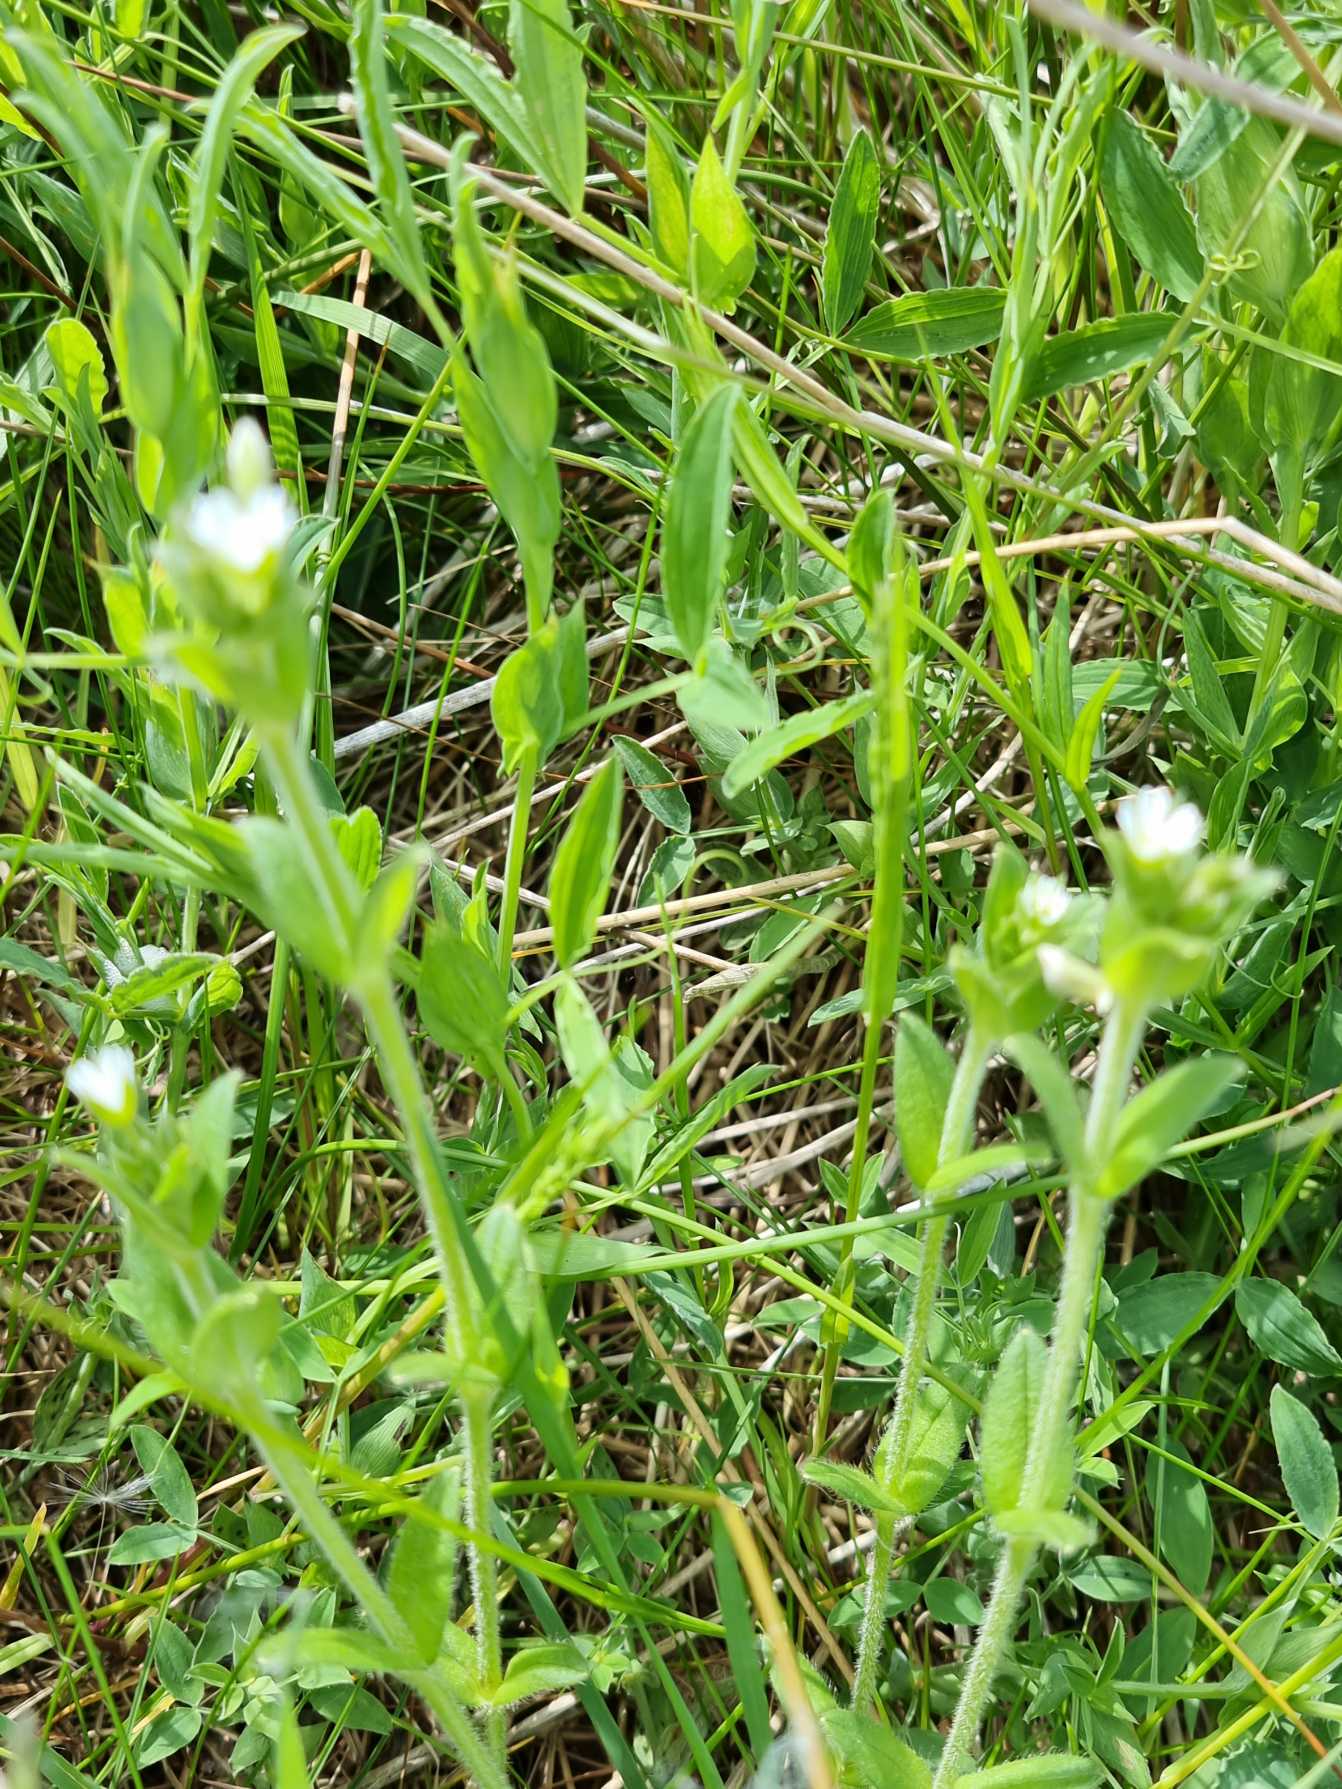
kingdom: Plantae
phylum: Tracheophyta
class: Magnoliopsida
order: Caryophyllales
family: Caryophyllaceae
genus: Cerastium
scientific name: Cerastium fontanum
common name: Almindelig hønsetarm
